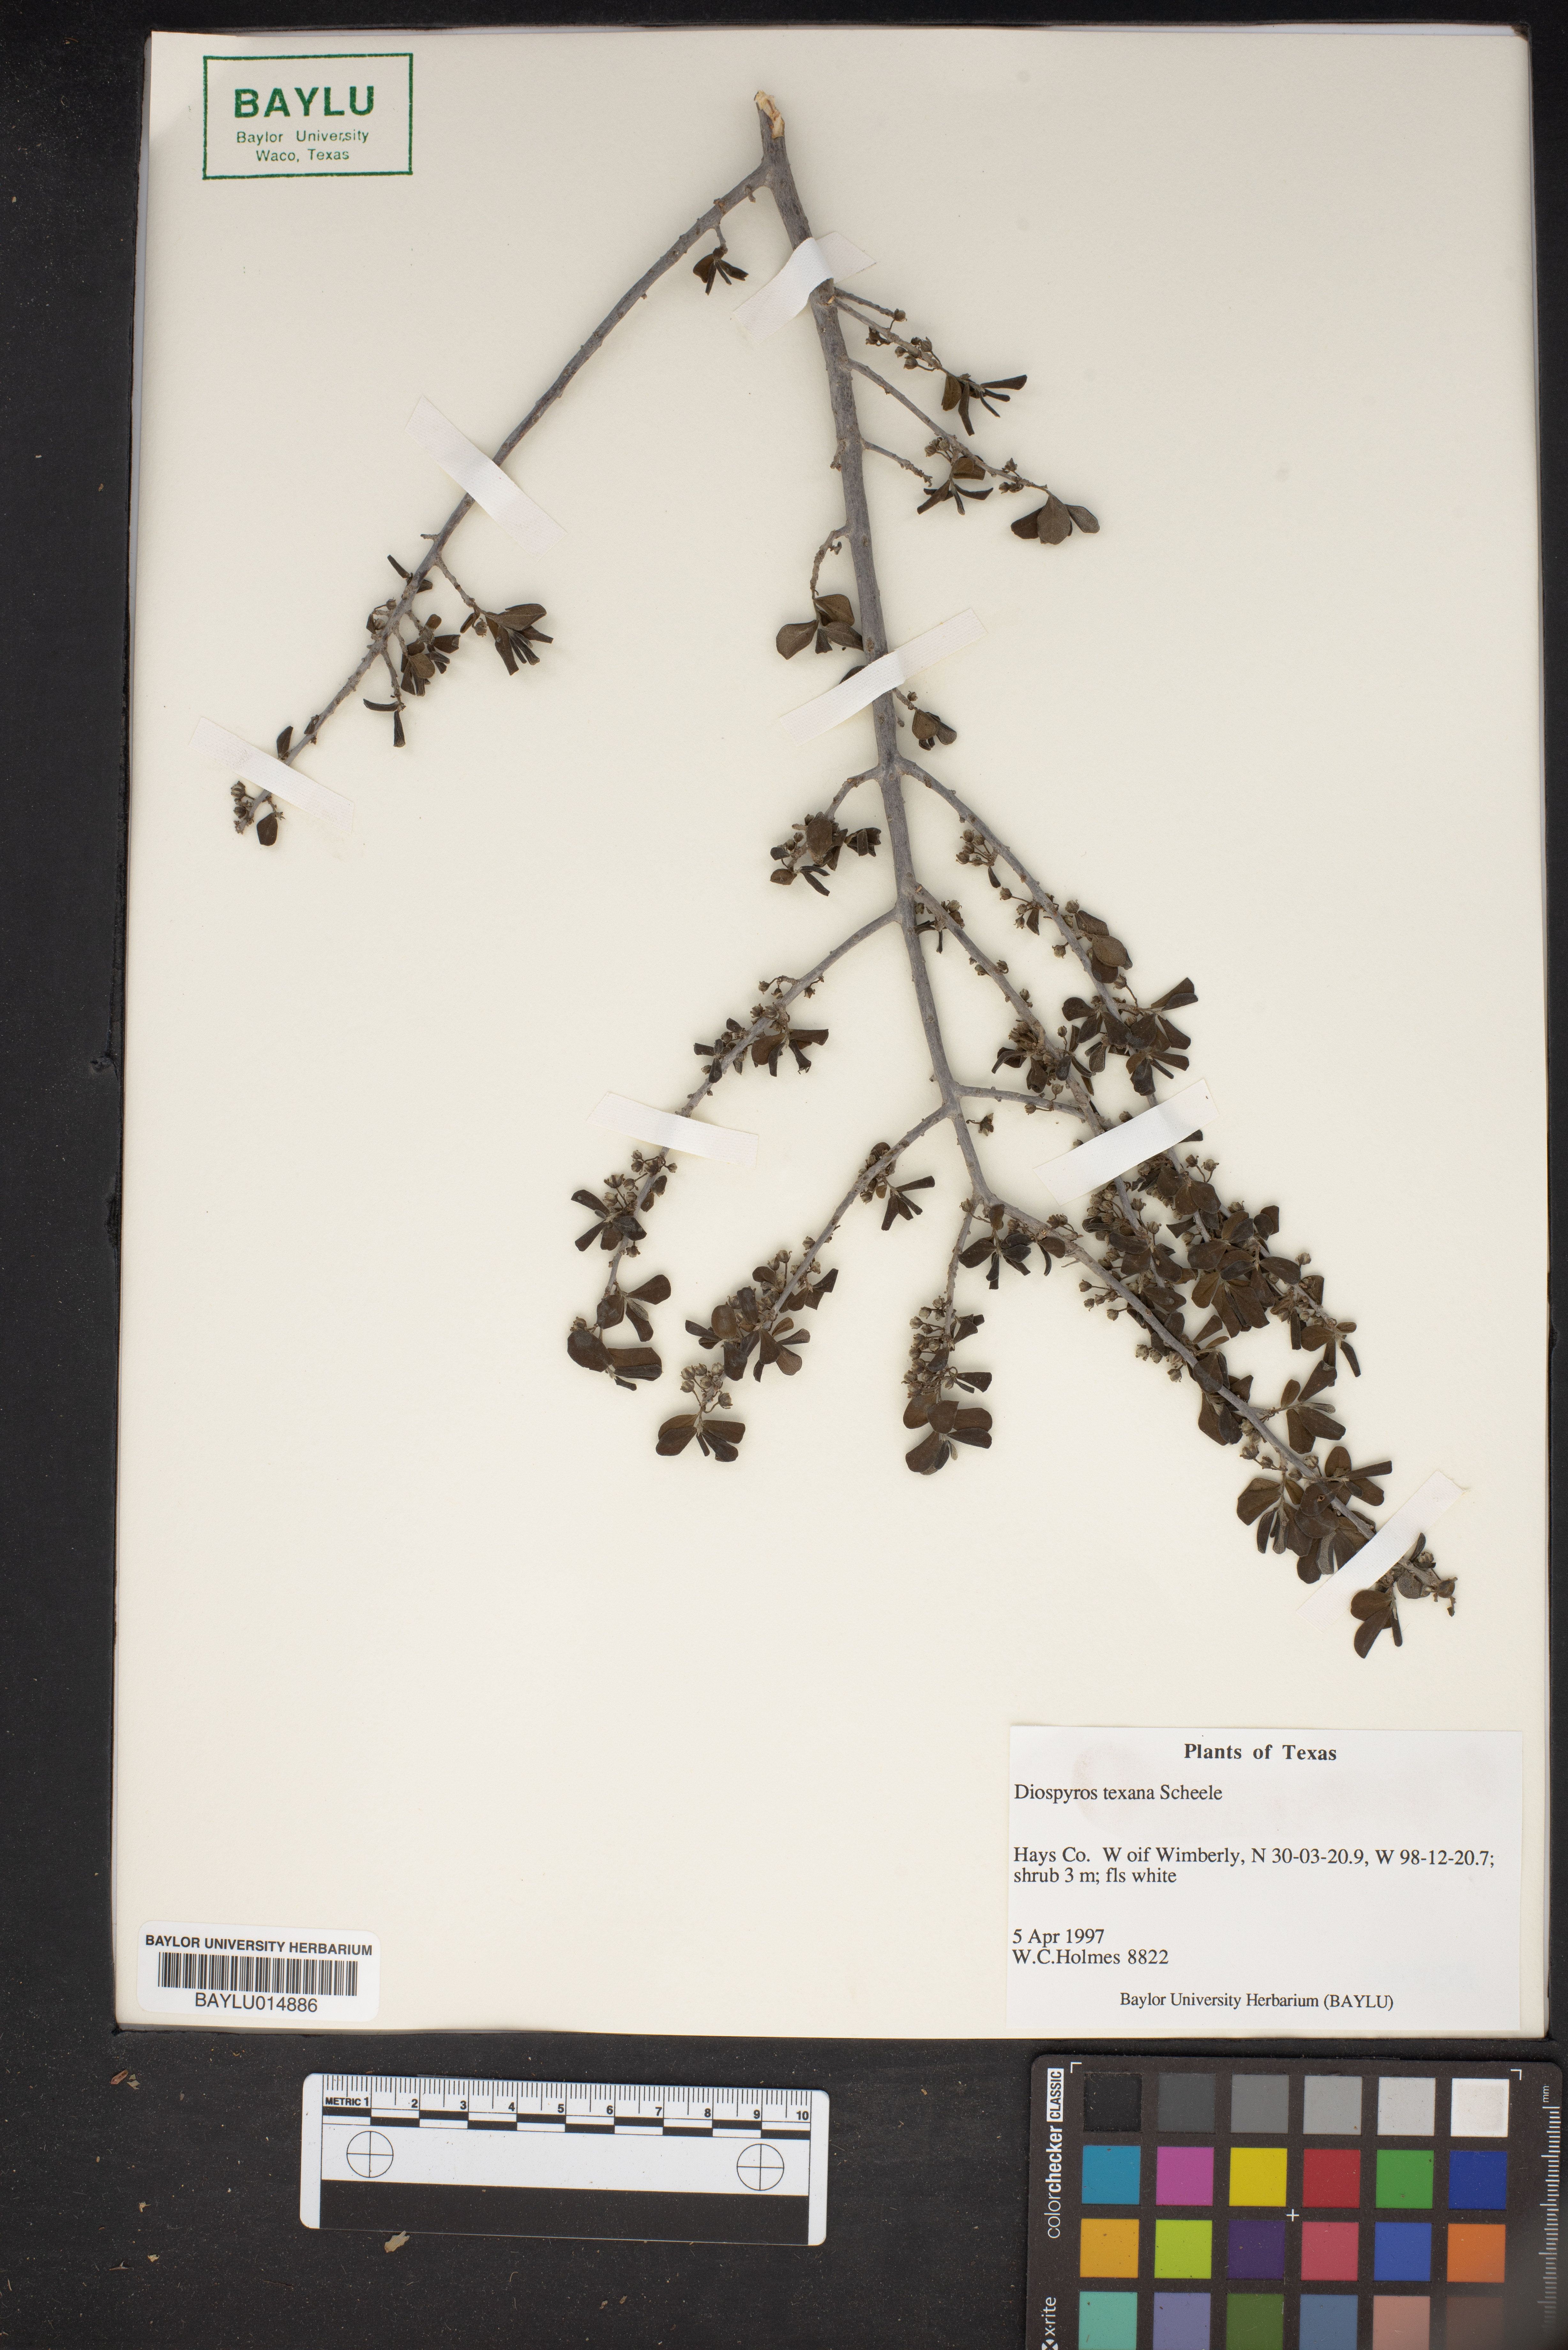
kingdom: Plantae
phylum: Tracheophyta
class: Magnoliopsida
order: Ericales
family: Ebenaceae
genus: Diospyros
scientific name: Diospyros texana
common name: Texas persimmon
